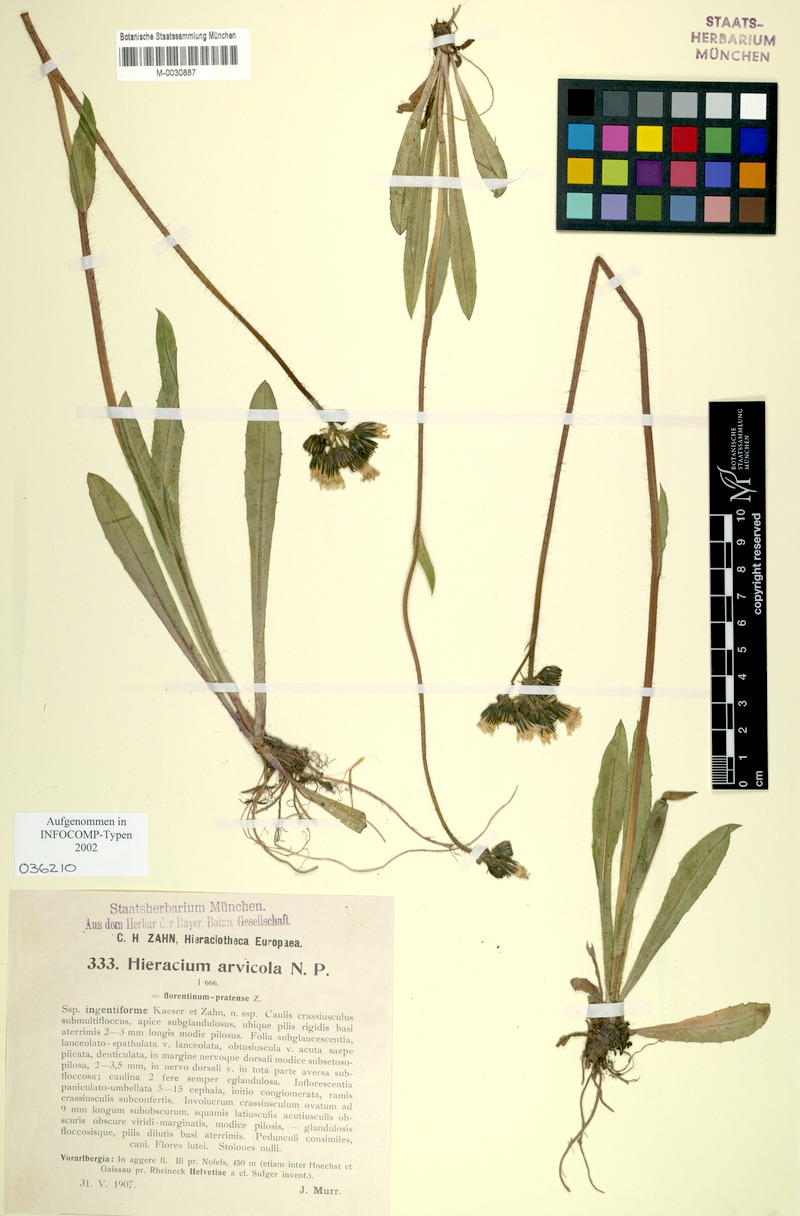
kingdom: Plantae
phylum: Tracheophyta
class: Magnoliopsida
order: Asterales
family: Asteraceae
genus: Pilosella
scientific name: Pilosella erythrochrista
